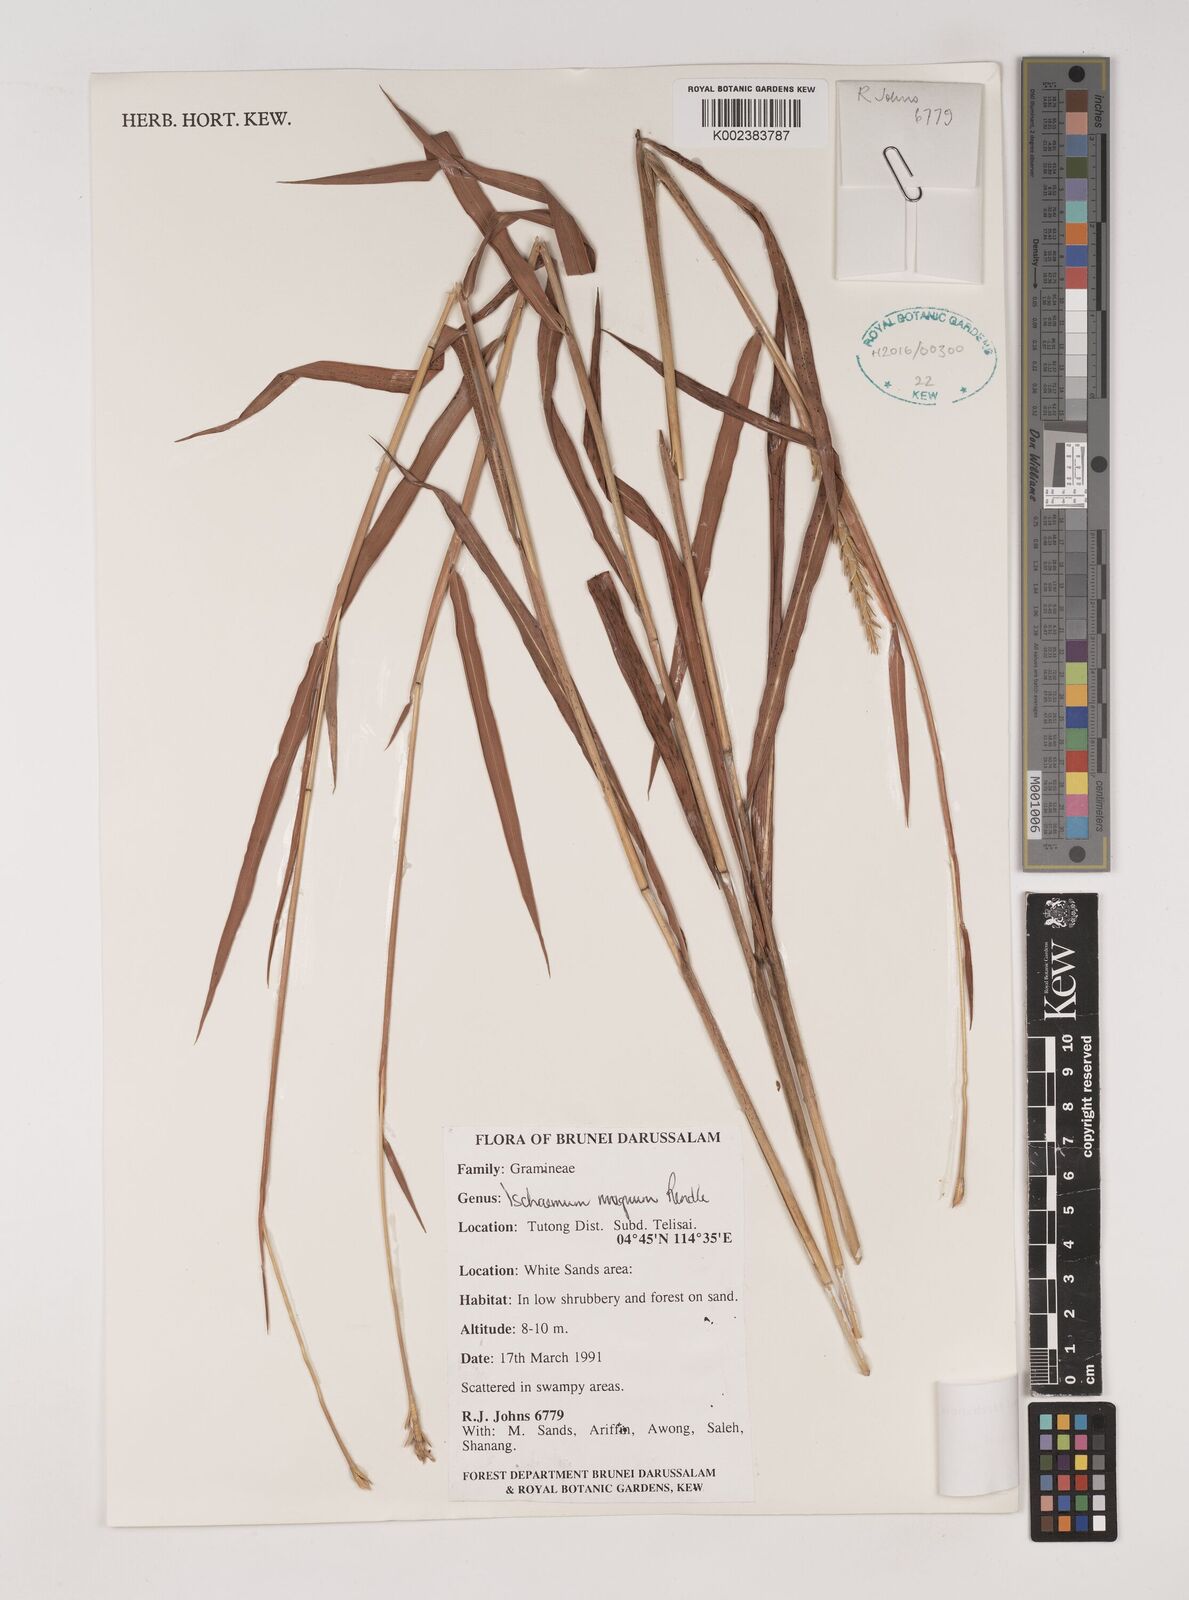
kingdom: Plantae
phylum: Tracheophyta
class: Liliopsida
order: Poales
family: Poaceae
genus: Ischaemum
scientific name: Ischaemum barbatum
